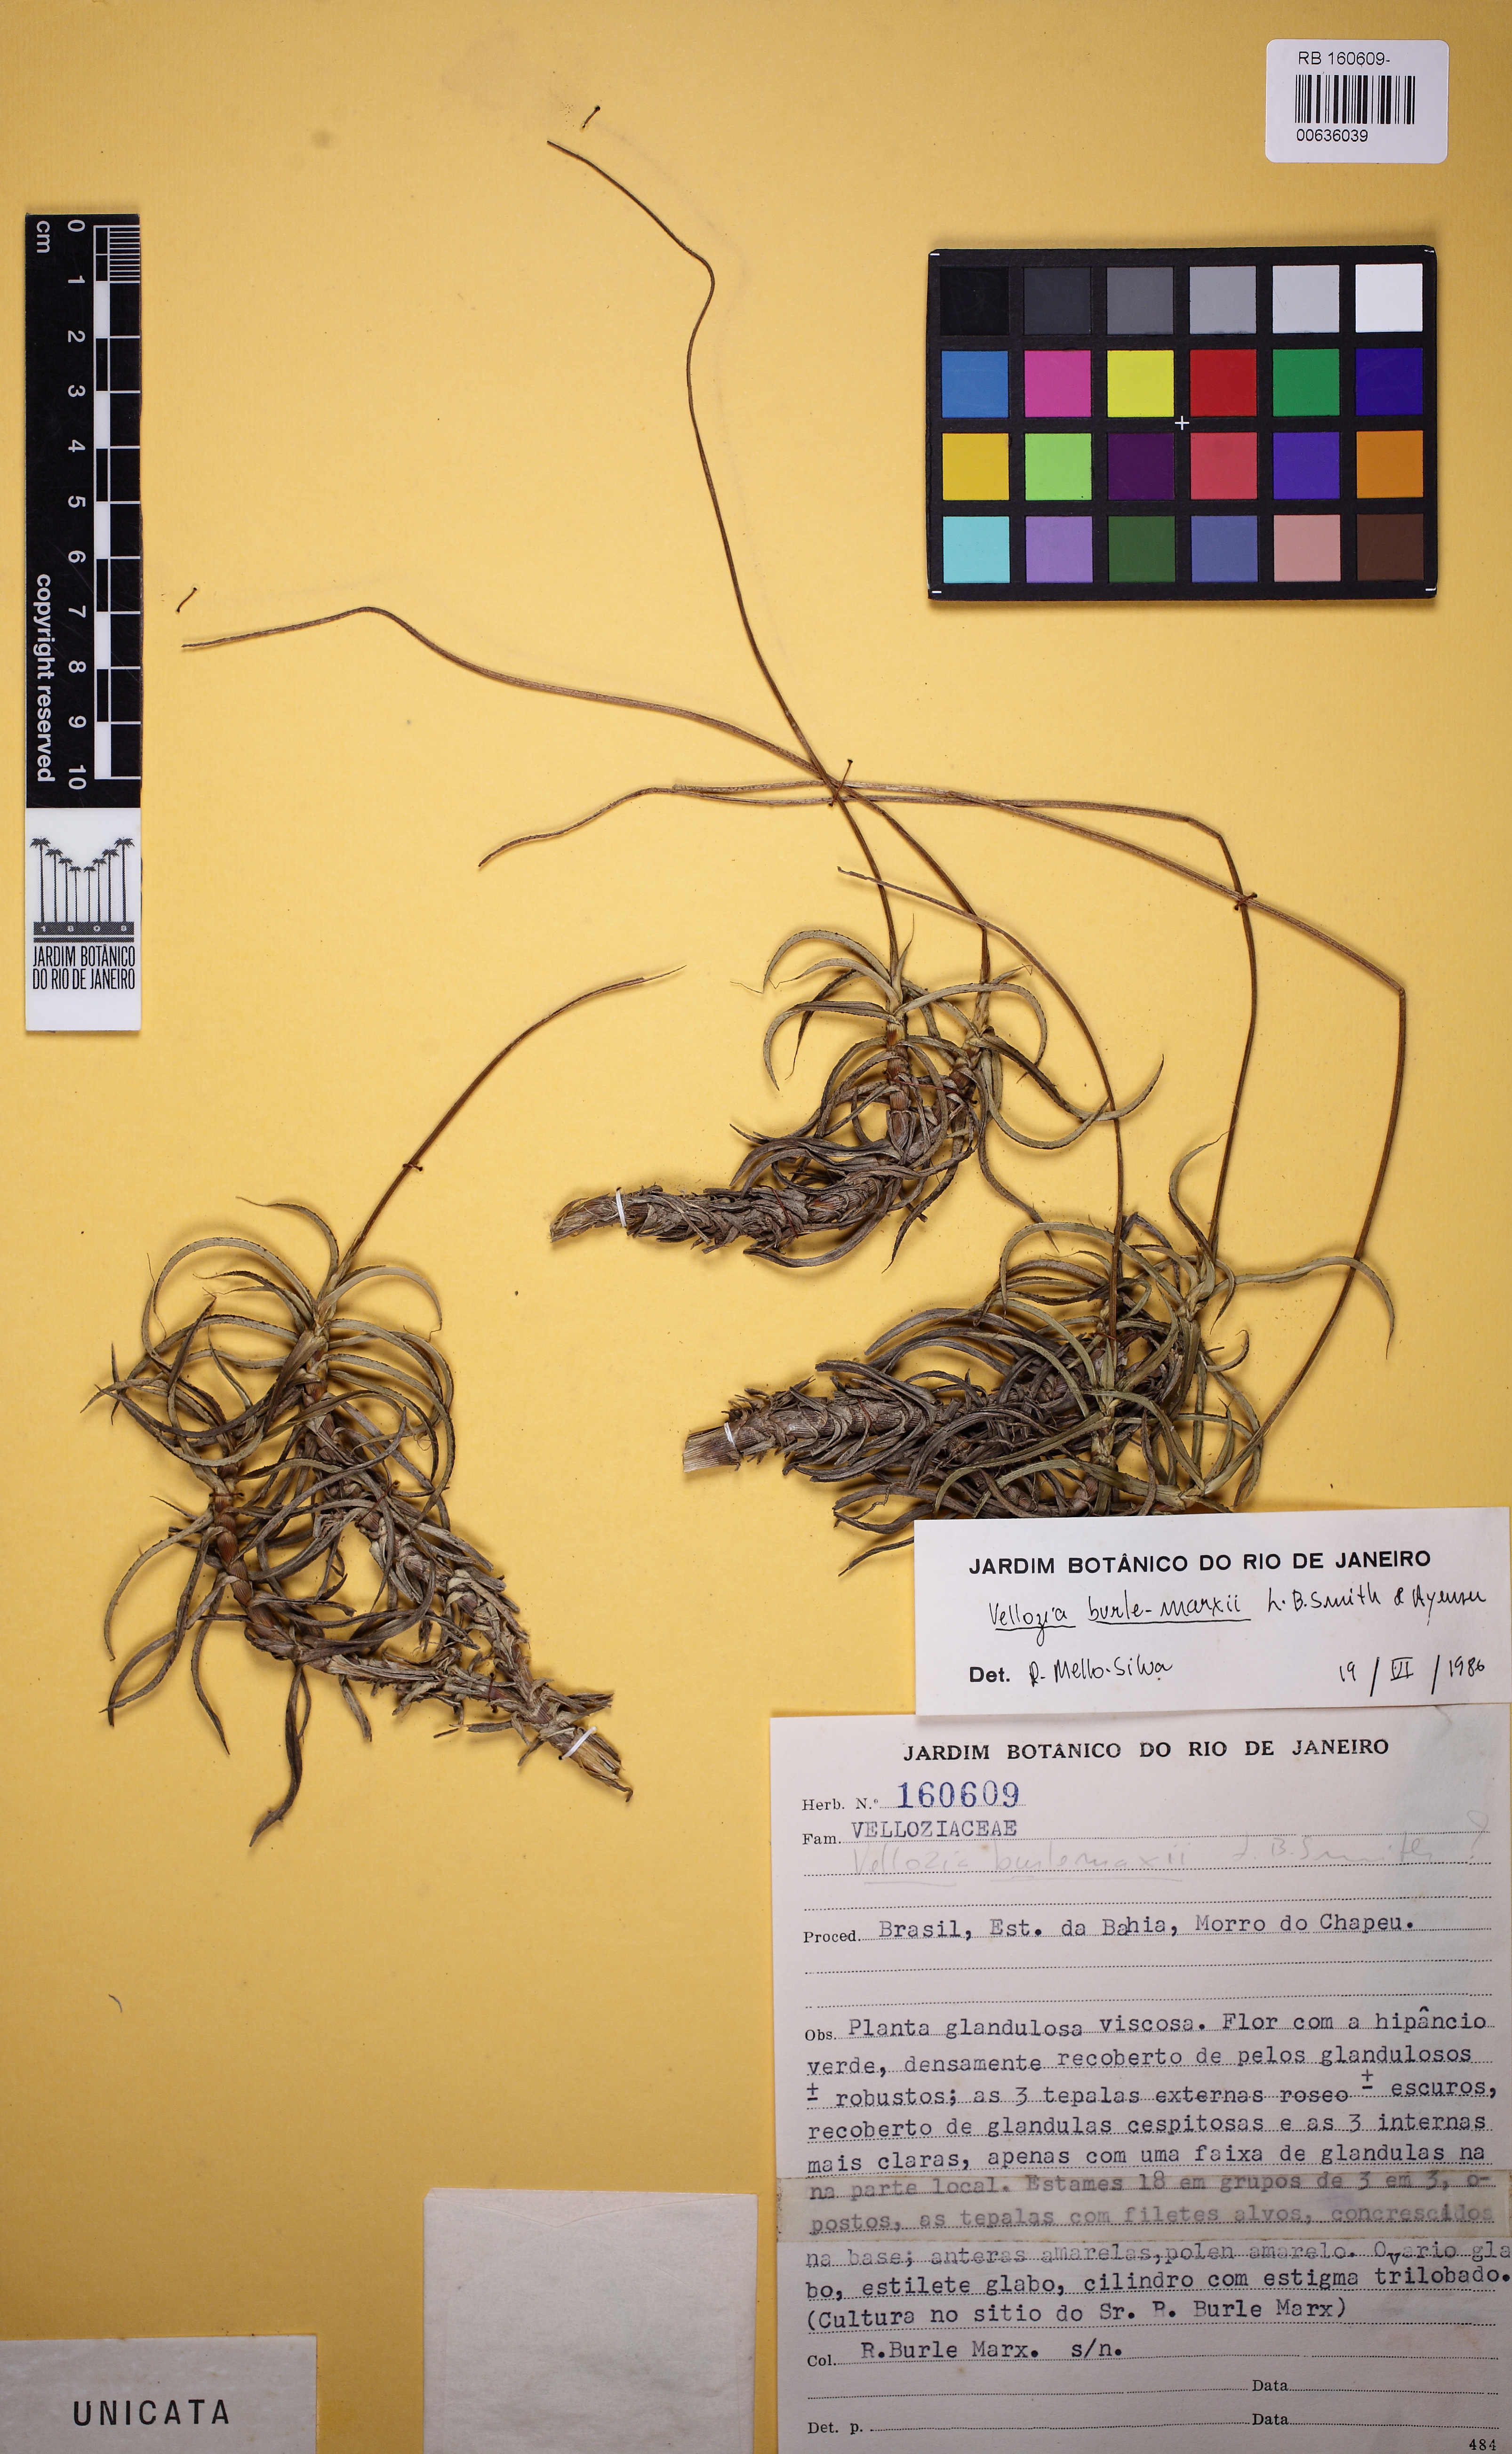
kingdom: Plantae
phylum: Tracheophyta
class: Liliopsida
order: Pandanales
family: Velloziaceae
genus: Vellozia
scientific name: Vellozia hemisphaerica
